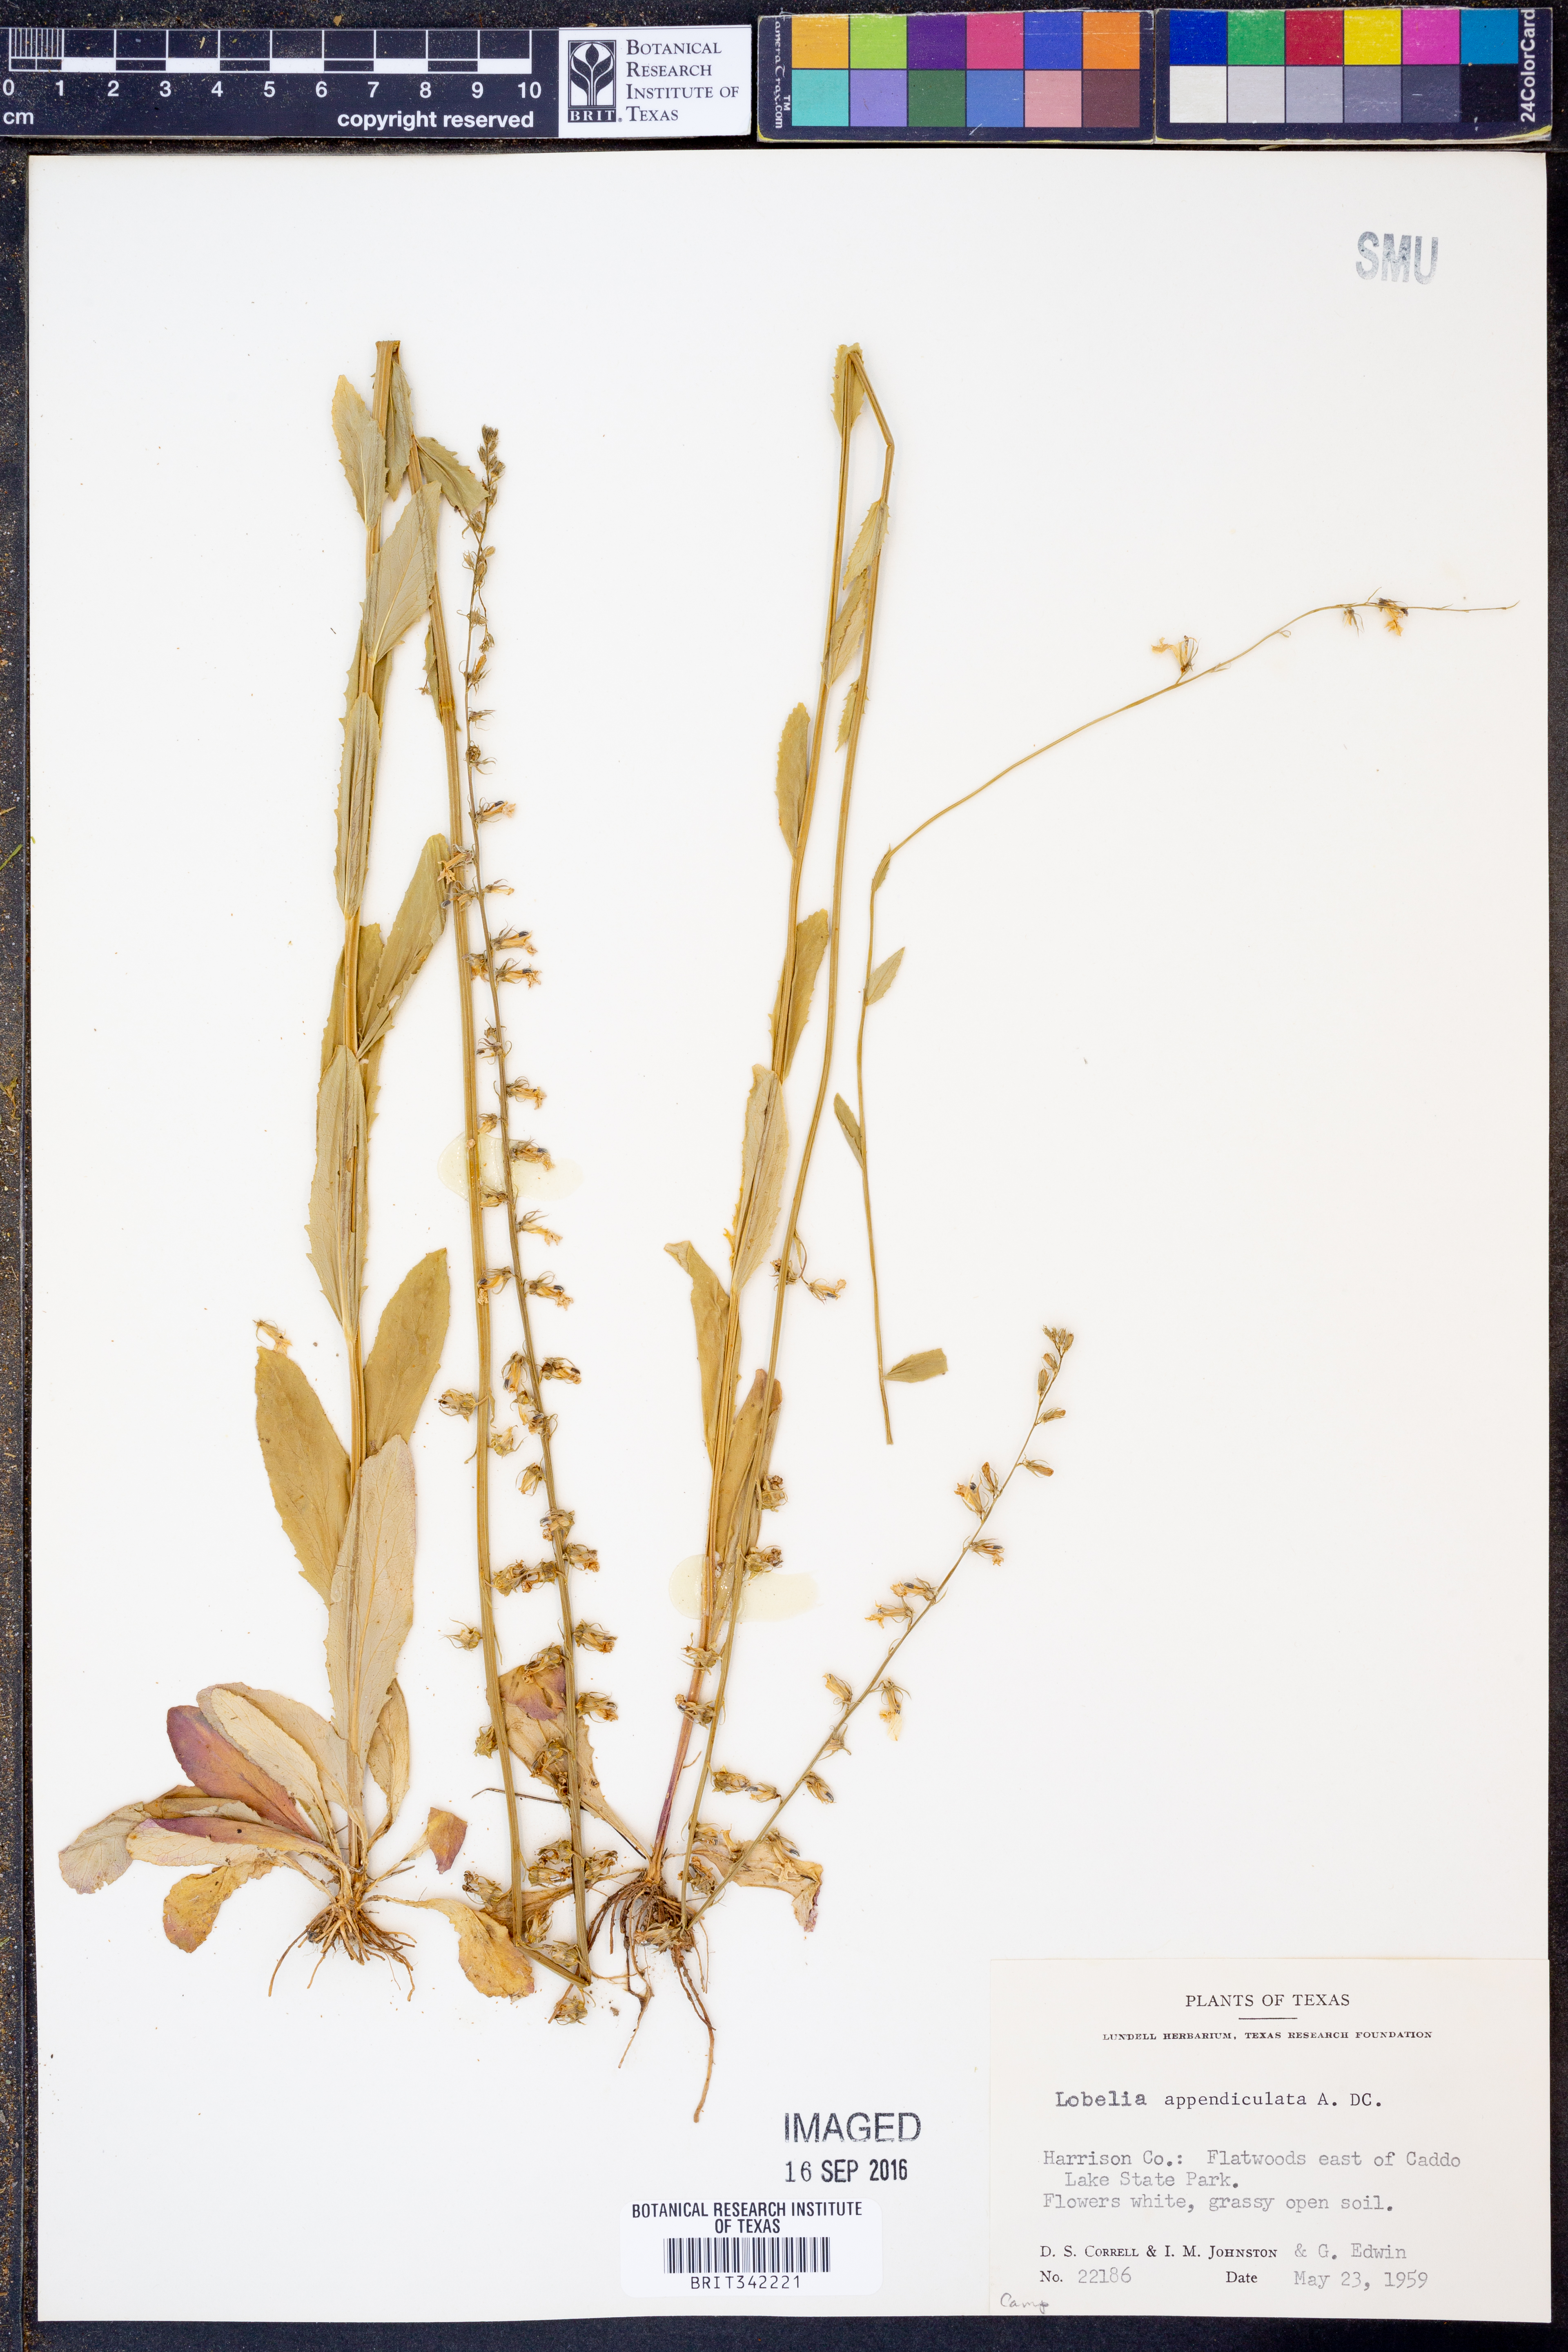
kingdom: Plantae
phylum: Tracheophyta
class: Magnoliopsida
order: Asterales
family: Campanulaceae
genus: Lobelia
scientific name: Lobelia appendiculata
